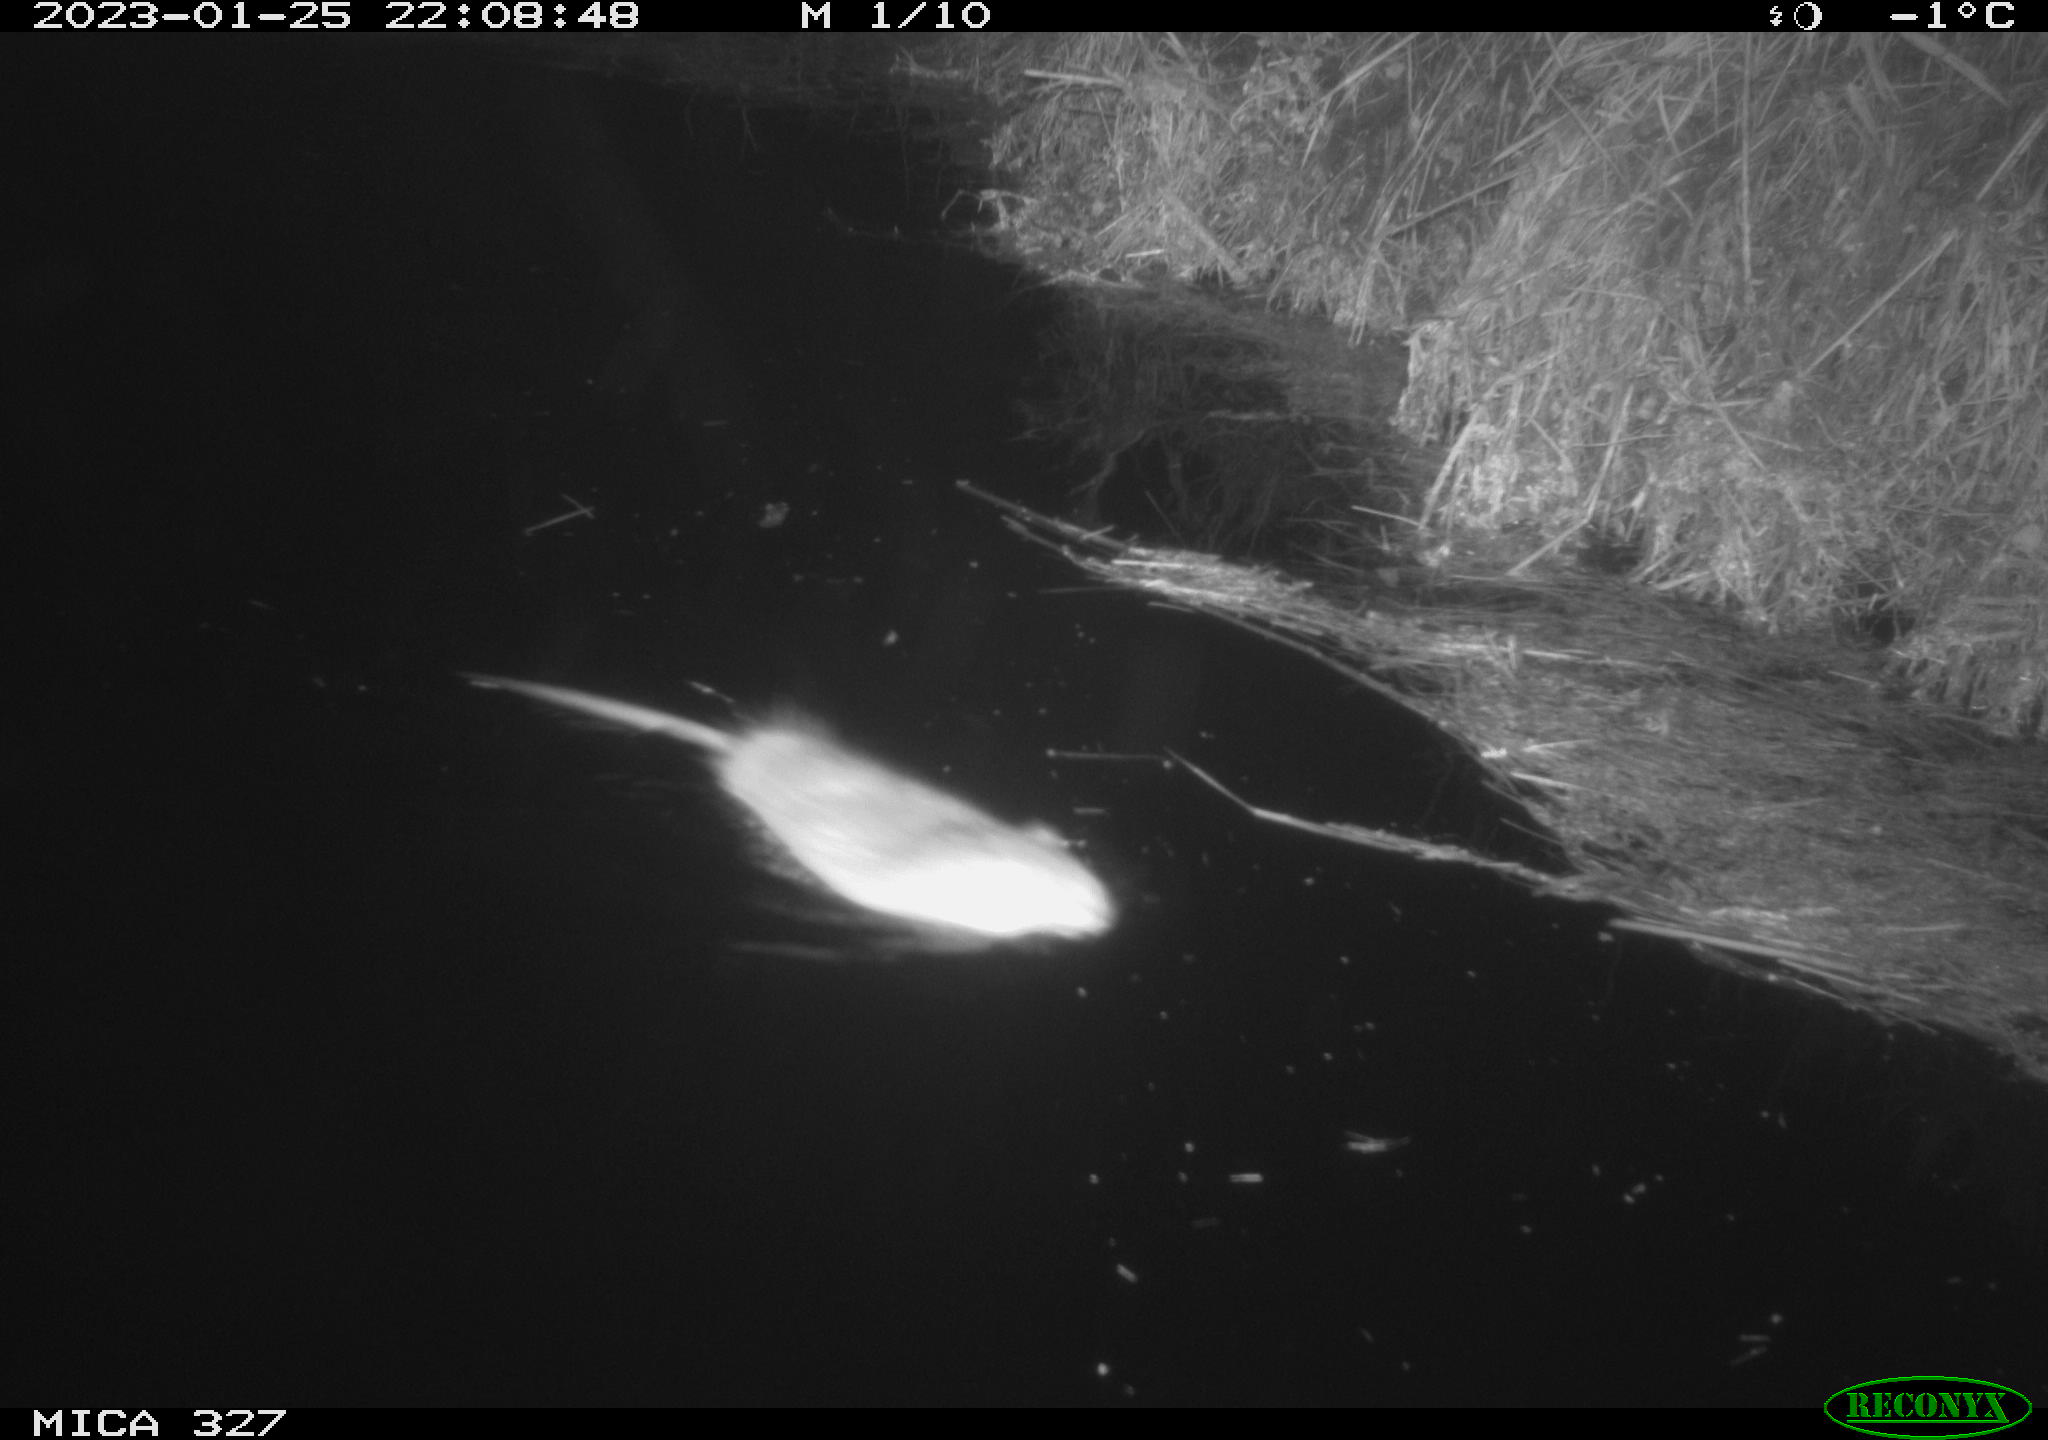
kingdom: Animalia
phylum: Chordata
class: Mammalia
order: Rodentia
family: Cricetidae
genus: Ondatra
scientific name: Ondatra zibethicus
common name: Muskrat
